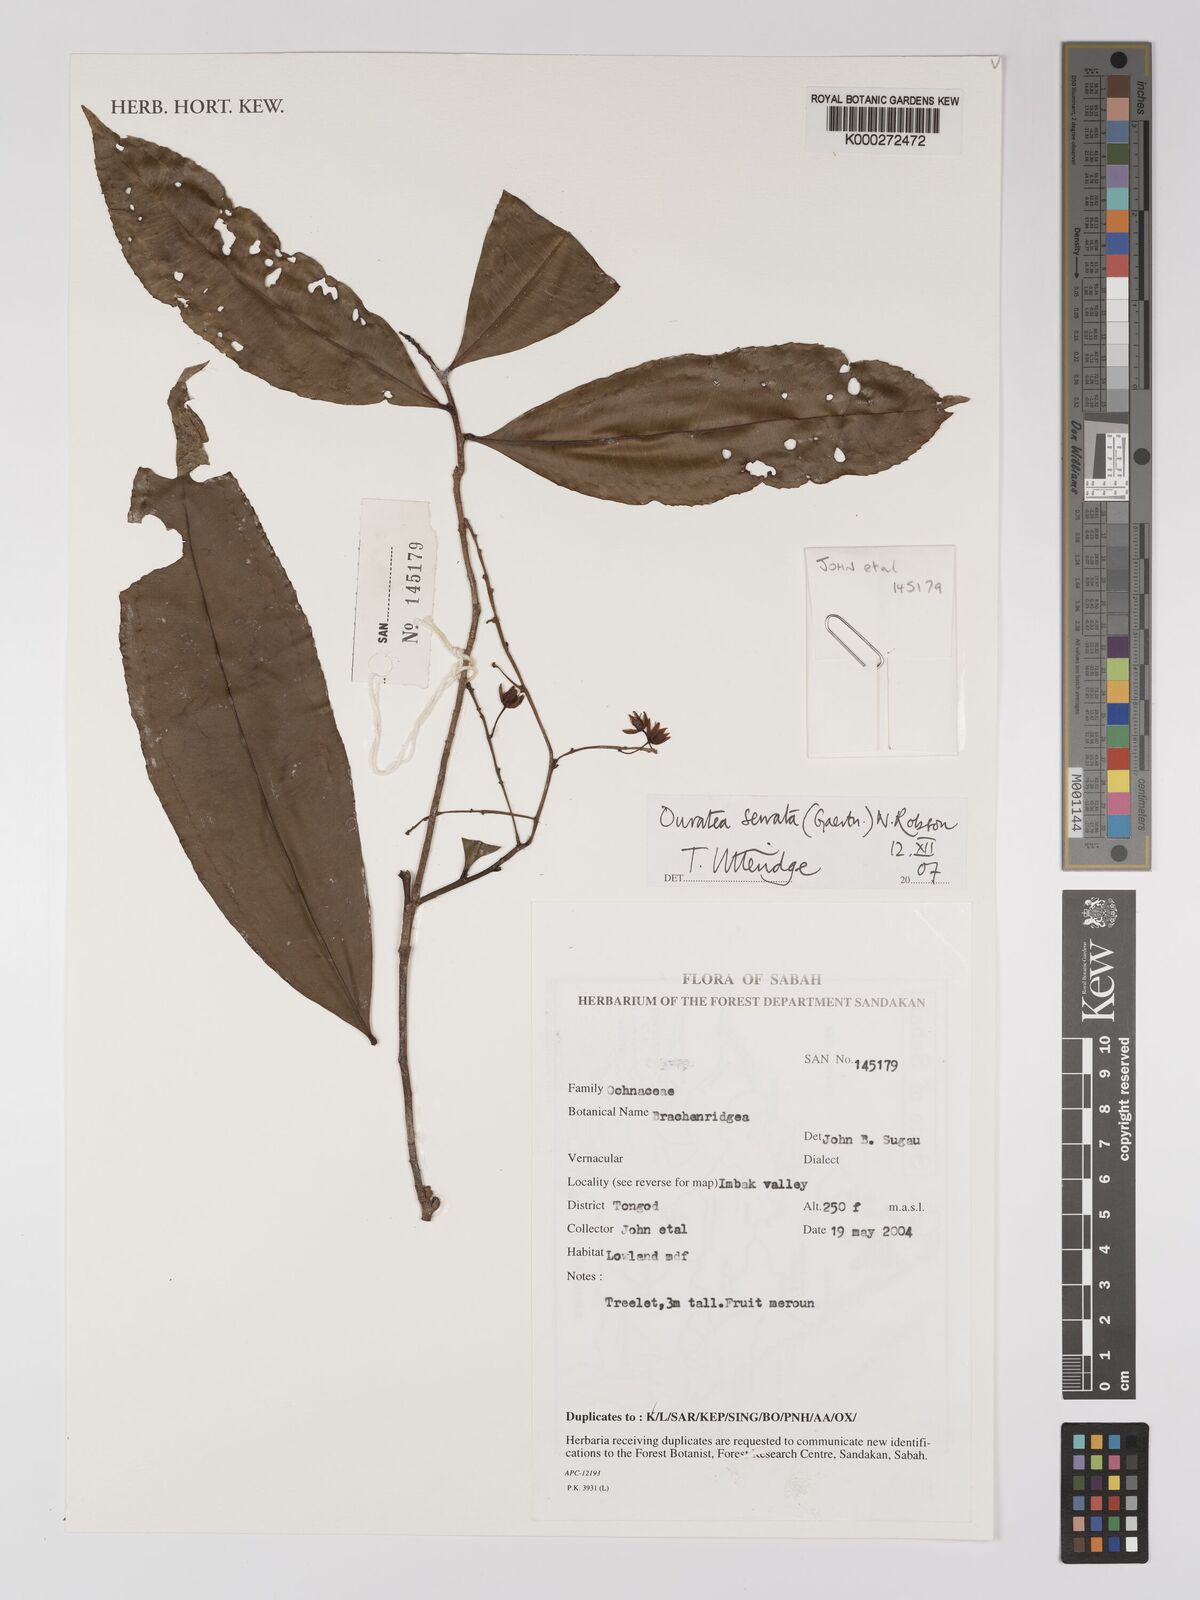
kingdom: Plantae
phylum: Tracheophyta
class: Magnoliopsida
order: Malpighiales
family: Ochnaceae
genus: Gomphia
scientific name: Gomphia serrata
